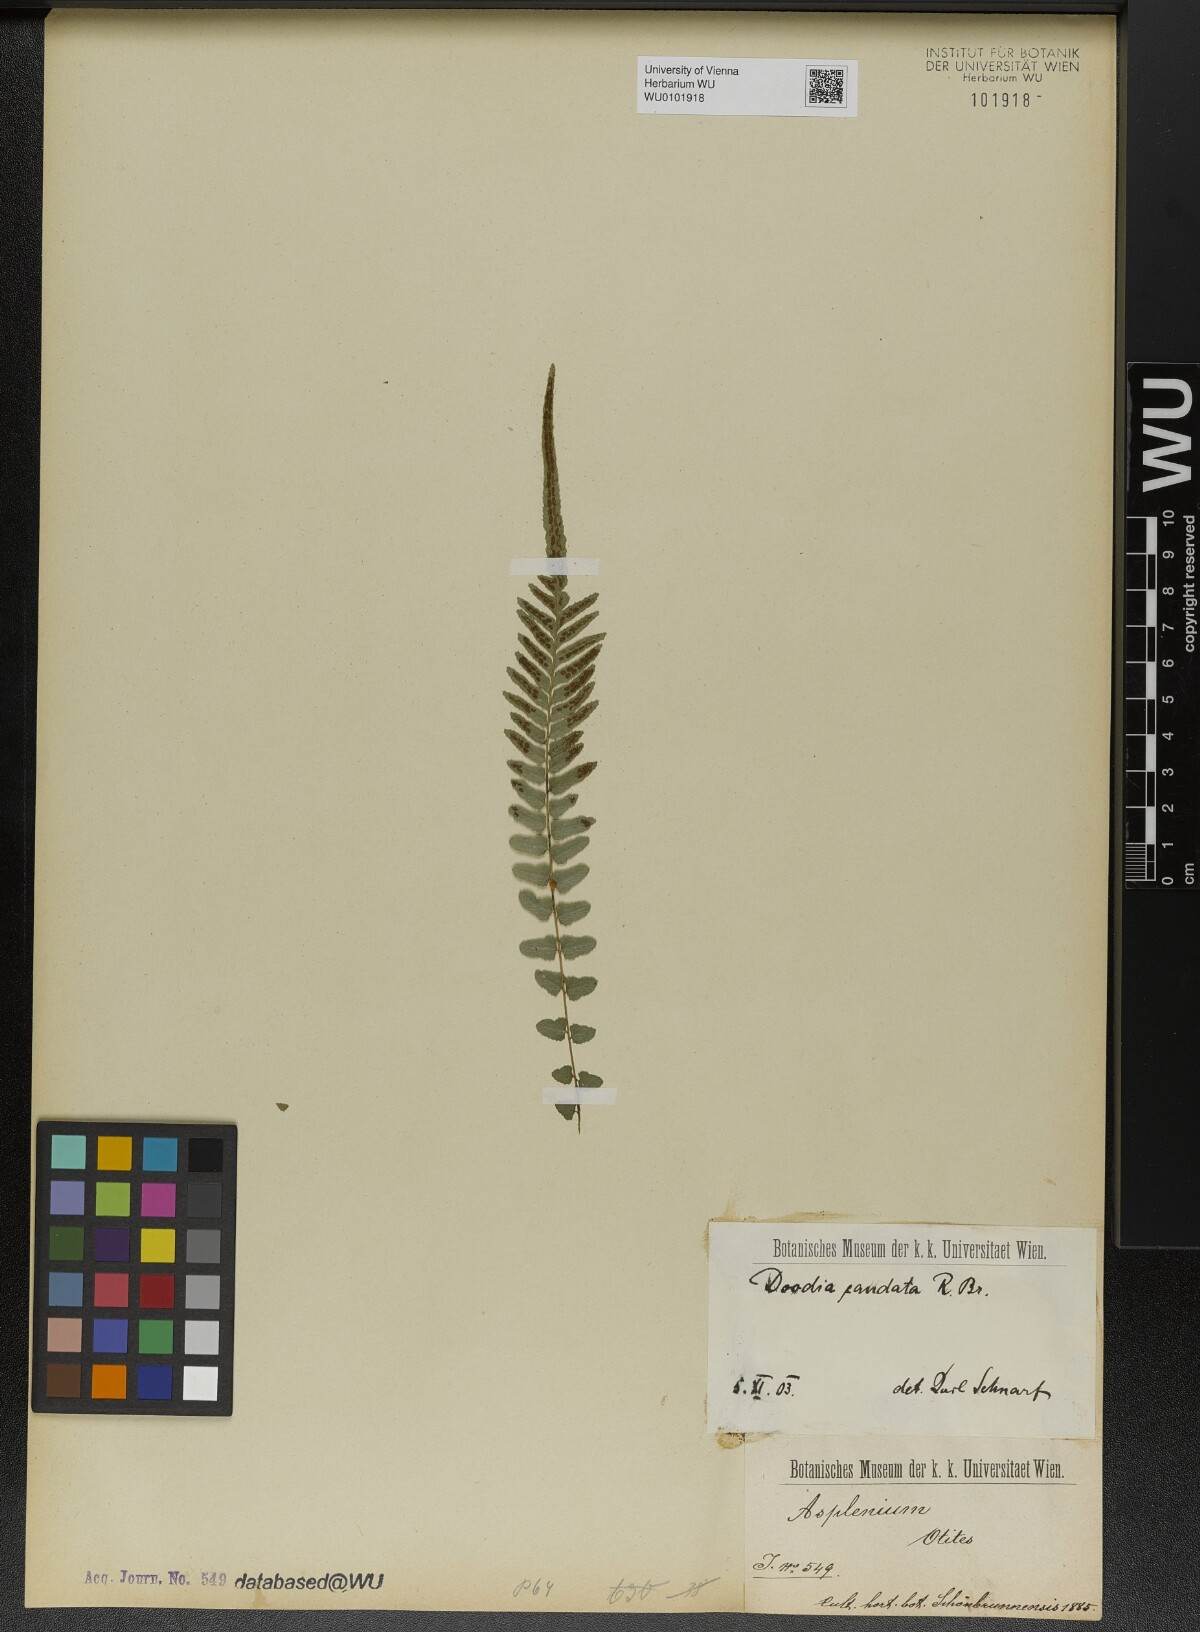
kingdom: Plantae
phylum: Tracheophyta
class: Polypodiopsida
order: Polypodiales
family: Blechnaceae
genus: Doodia
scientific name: Doodia caudata
